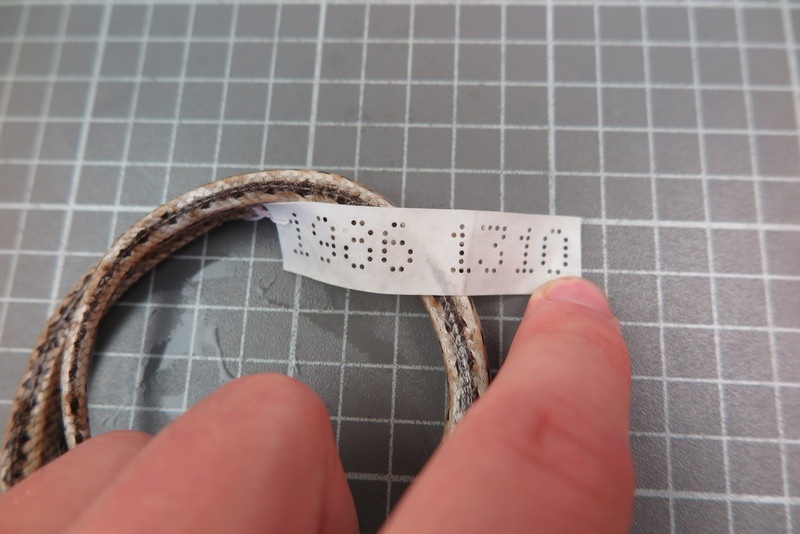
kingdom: Animalia
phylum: Chordata
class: Squamata
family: Psammophiidae
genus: Mimophis
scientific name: Mimophis
